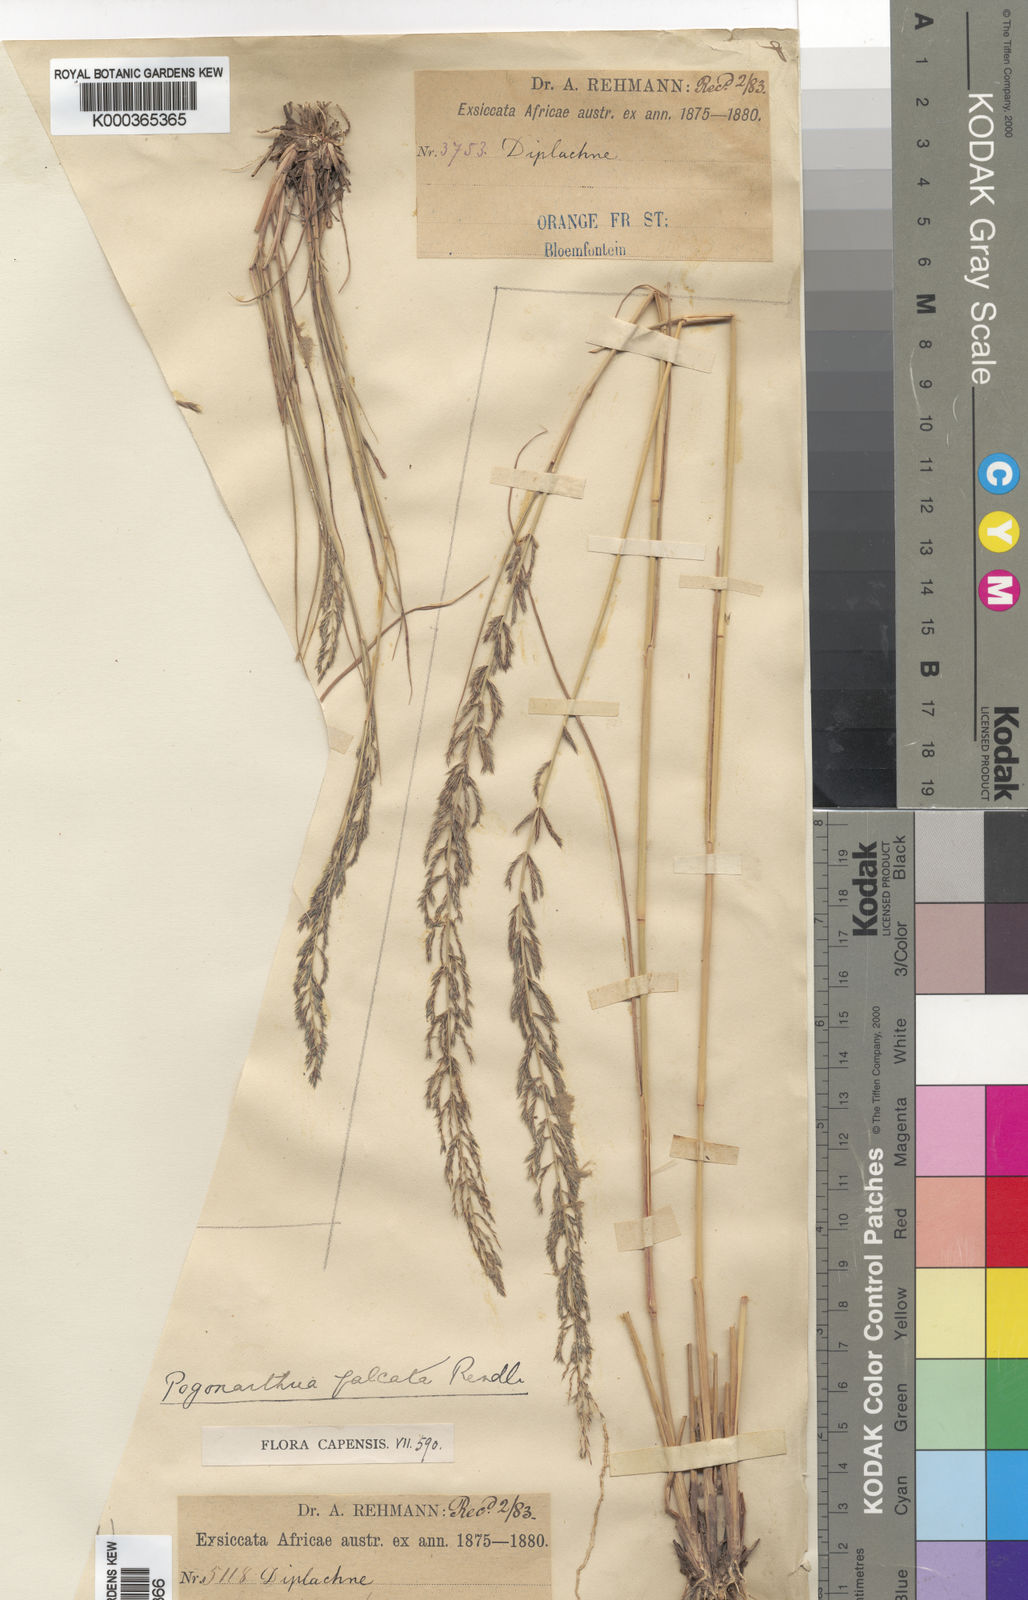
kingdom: Plantae
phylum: Tracheophyta
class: Liliopsida
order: Poales
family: Poaceae
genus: Pogonarthria
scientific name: Pogonarthria squarrosa
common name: Grass
